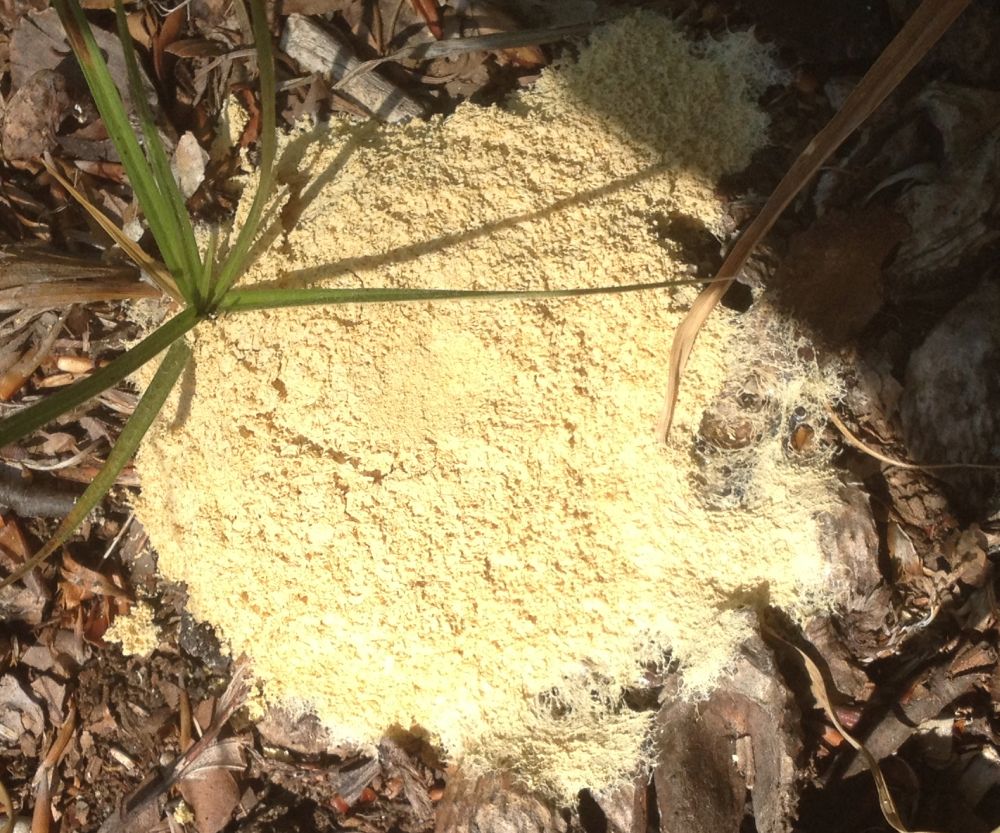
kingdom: Protozoa
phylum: Mycetozoa
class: Myxomycetes
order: Physarales
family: Physaraceae
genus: Fuligo
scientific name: Fuligo septica
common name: gul troldsmør
